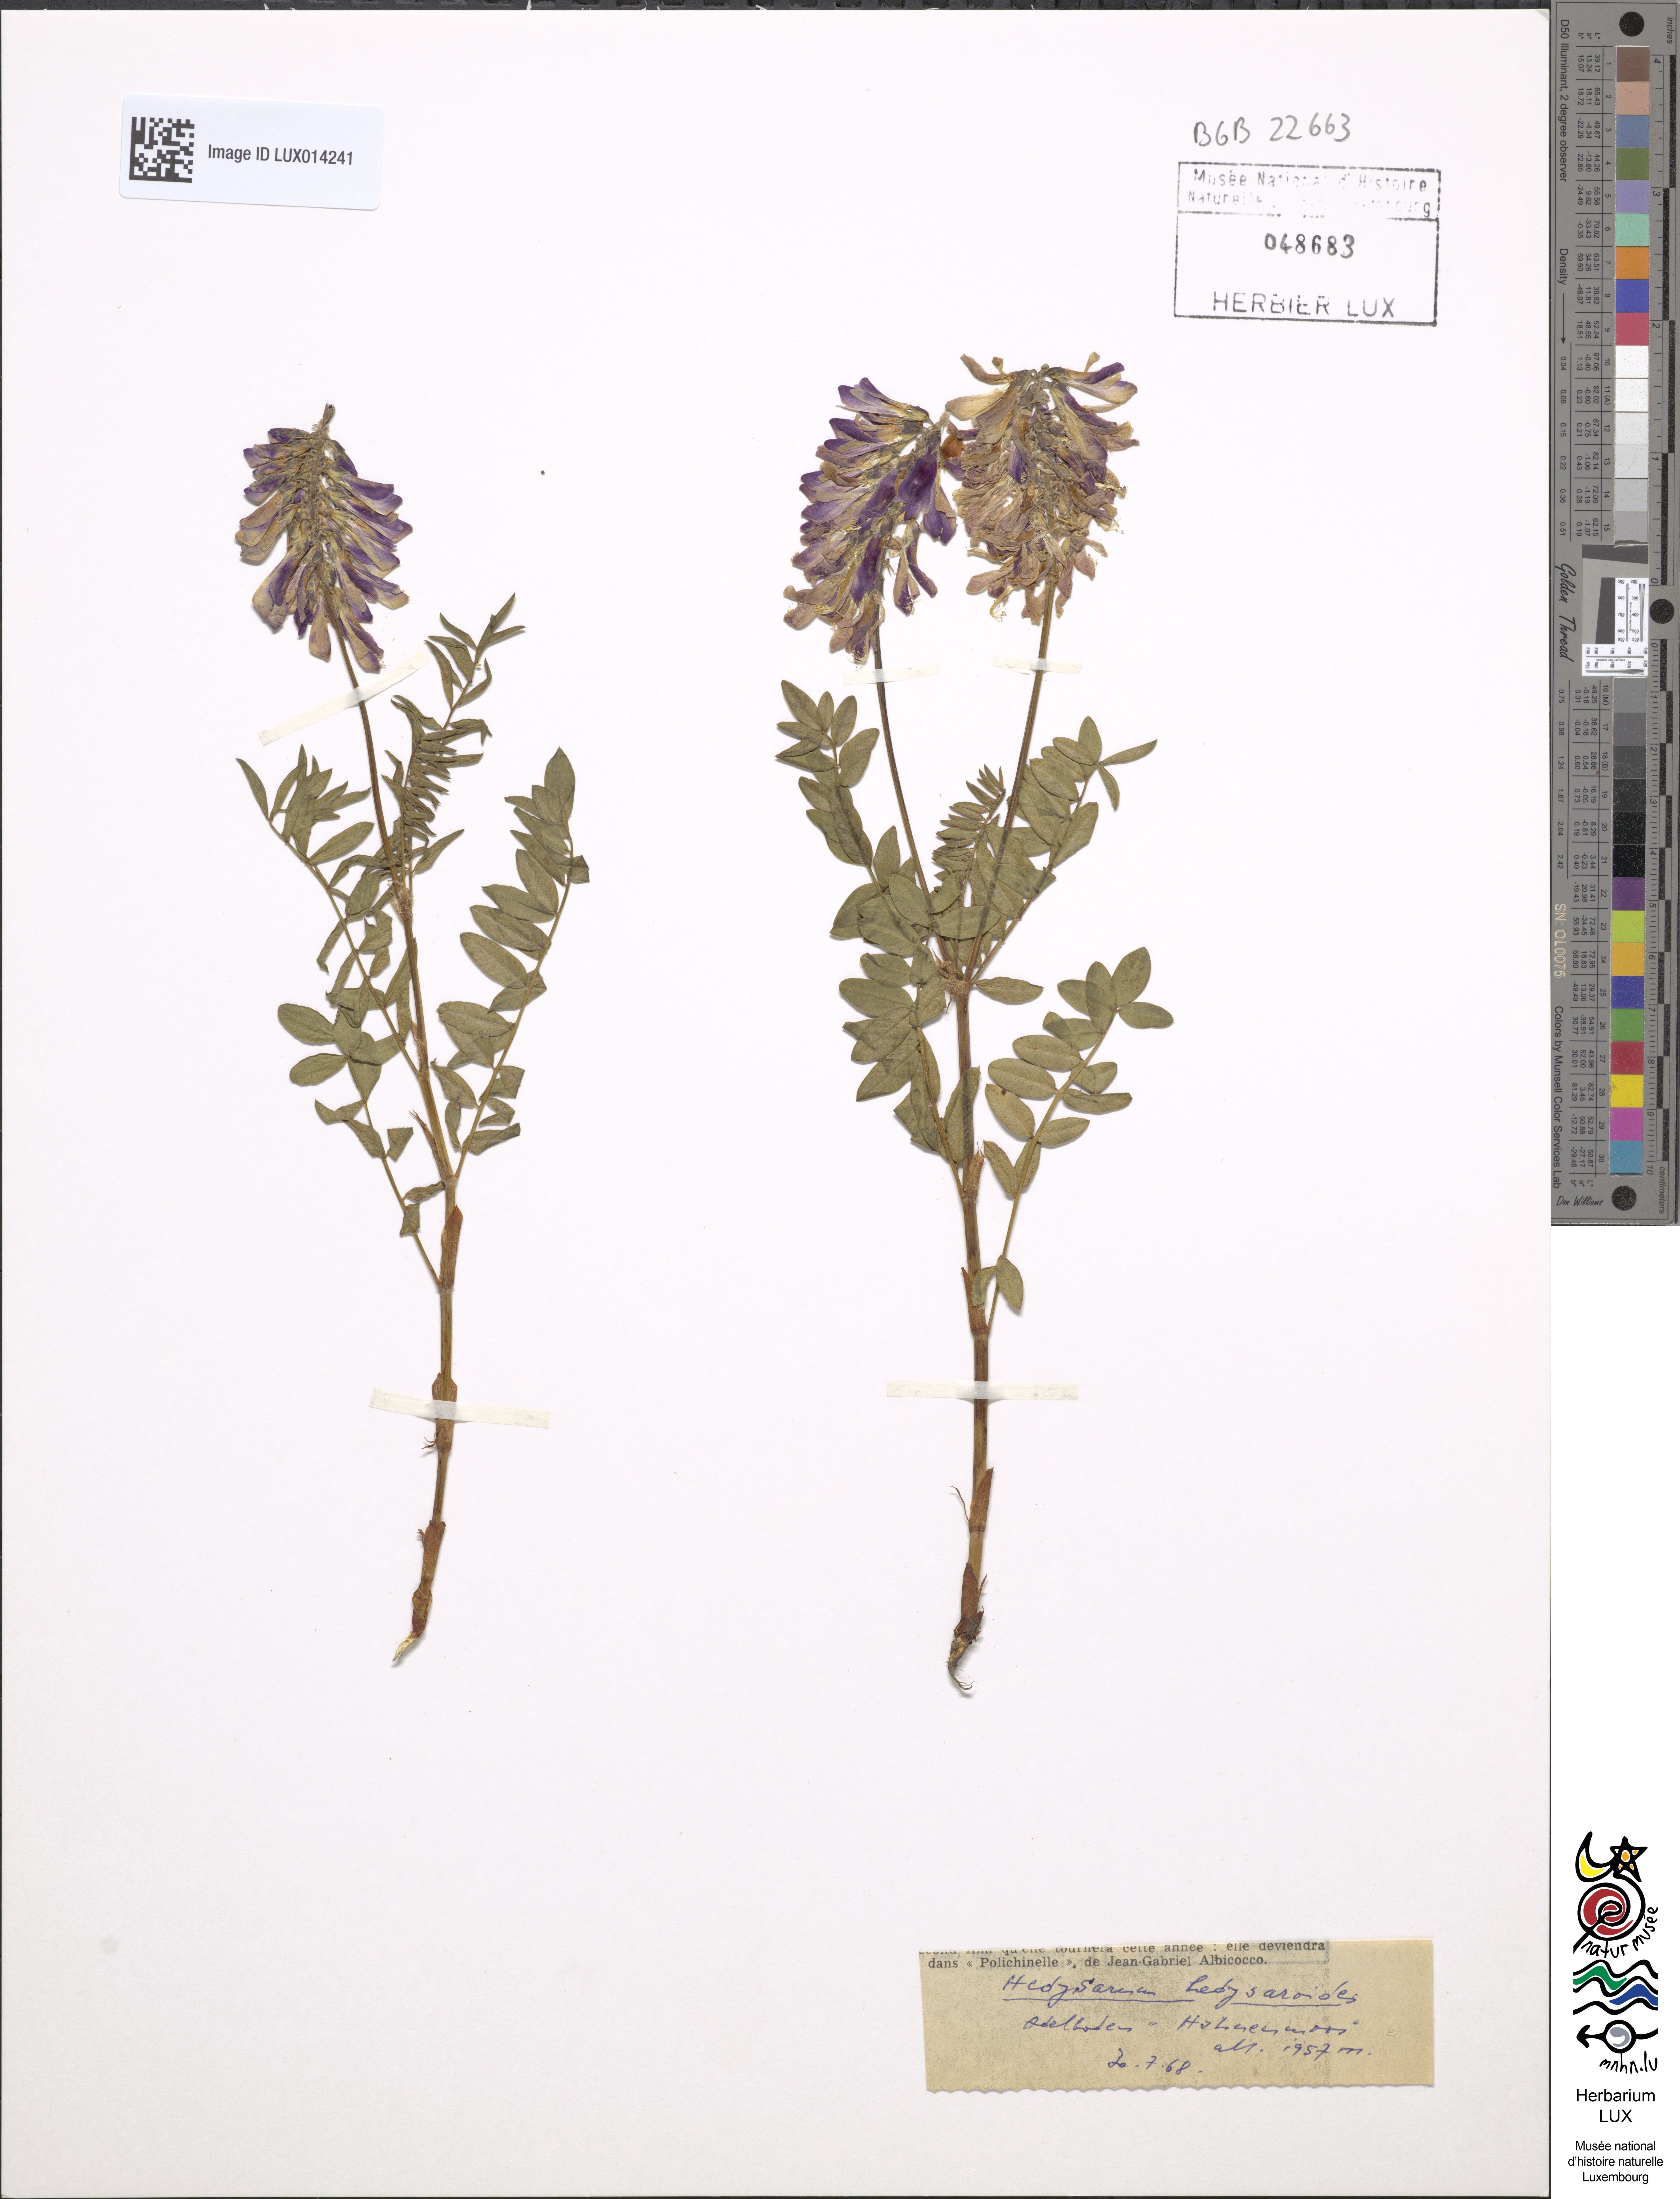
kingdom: Plantae
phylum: Tracheophyta
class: Magnoliopsida
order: Fabales
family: Fabaceae
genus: Hedysarum
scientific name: Hedysarum hedysaroides
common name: Alpine french-honeysuckle
